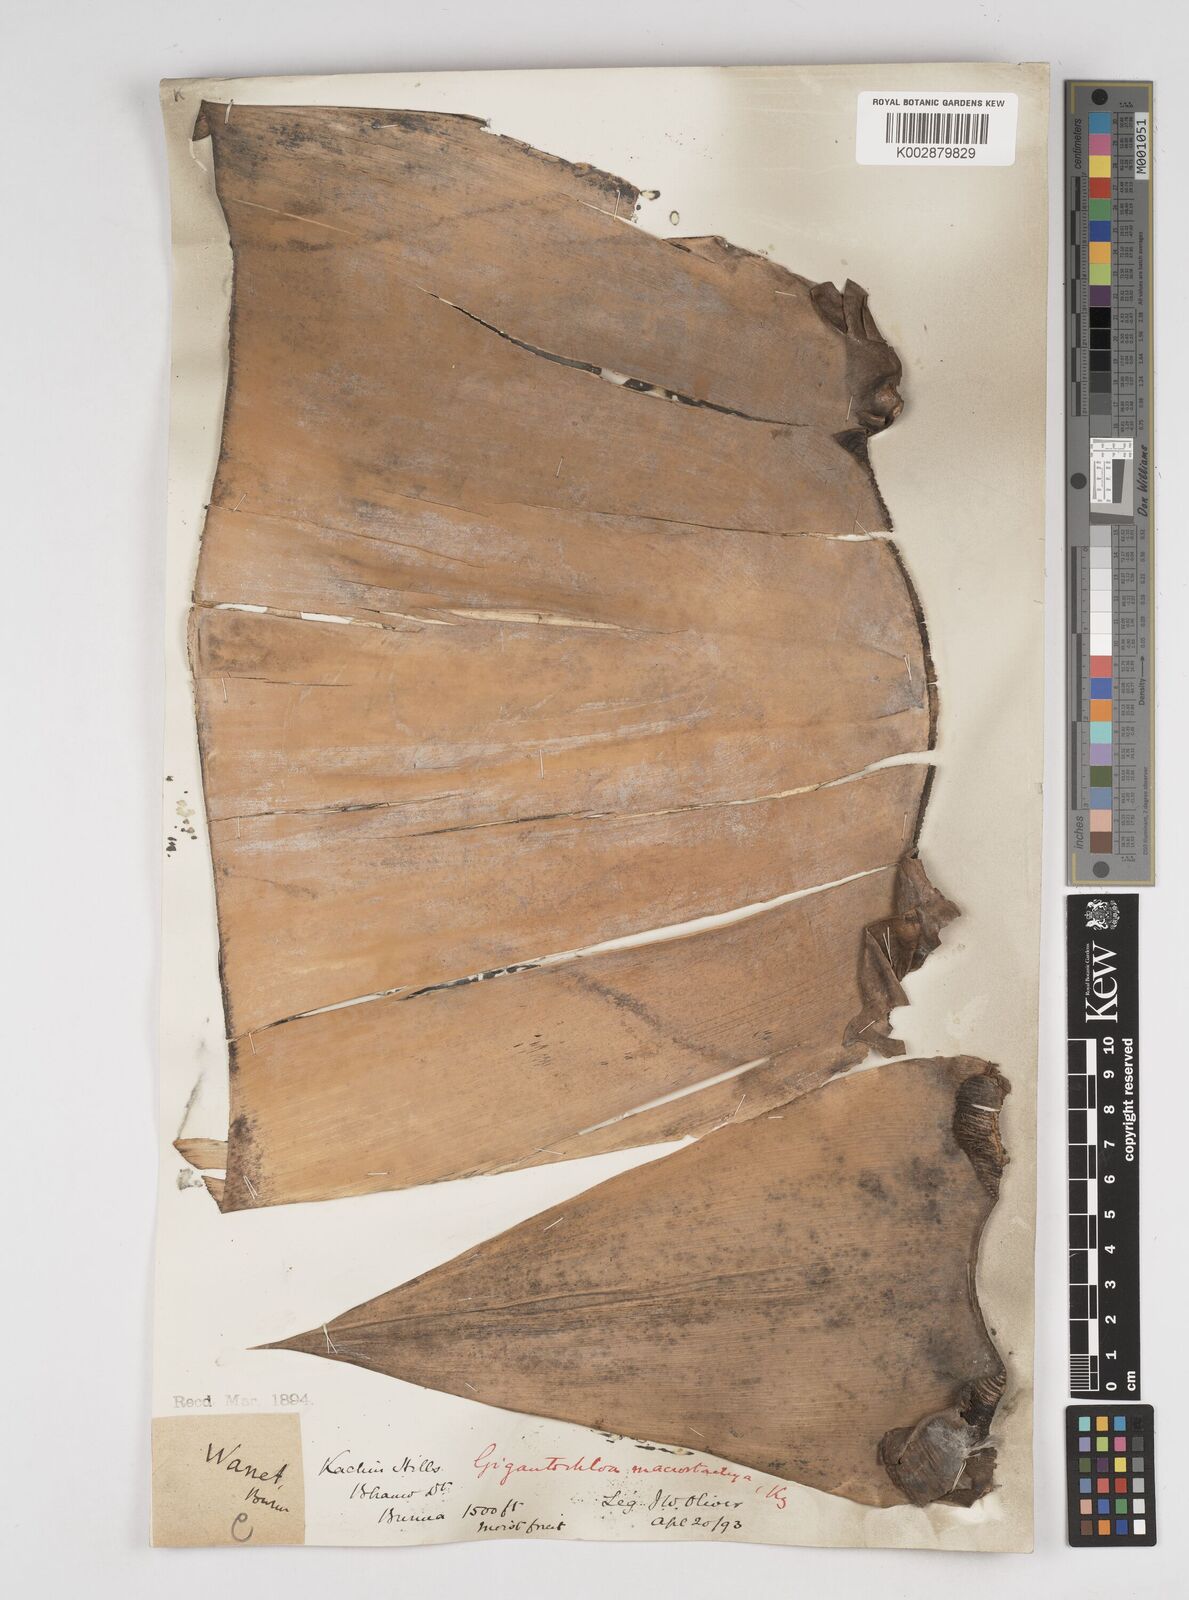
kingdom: Plantae
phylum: Tracheophyta
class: Liliopsida
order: Poales
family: Poaceae
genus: Gigantochloa
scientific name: Gigantochloa macrostachya
